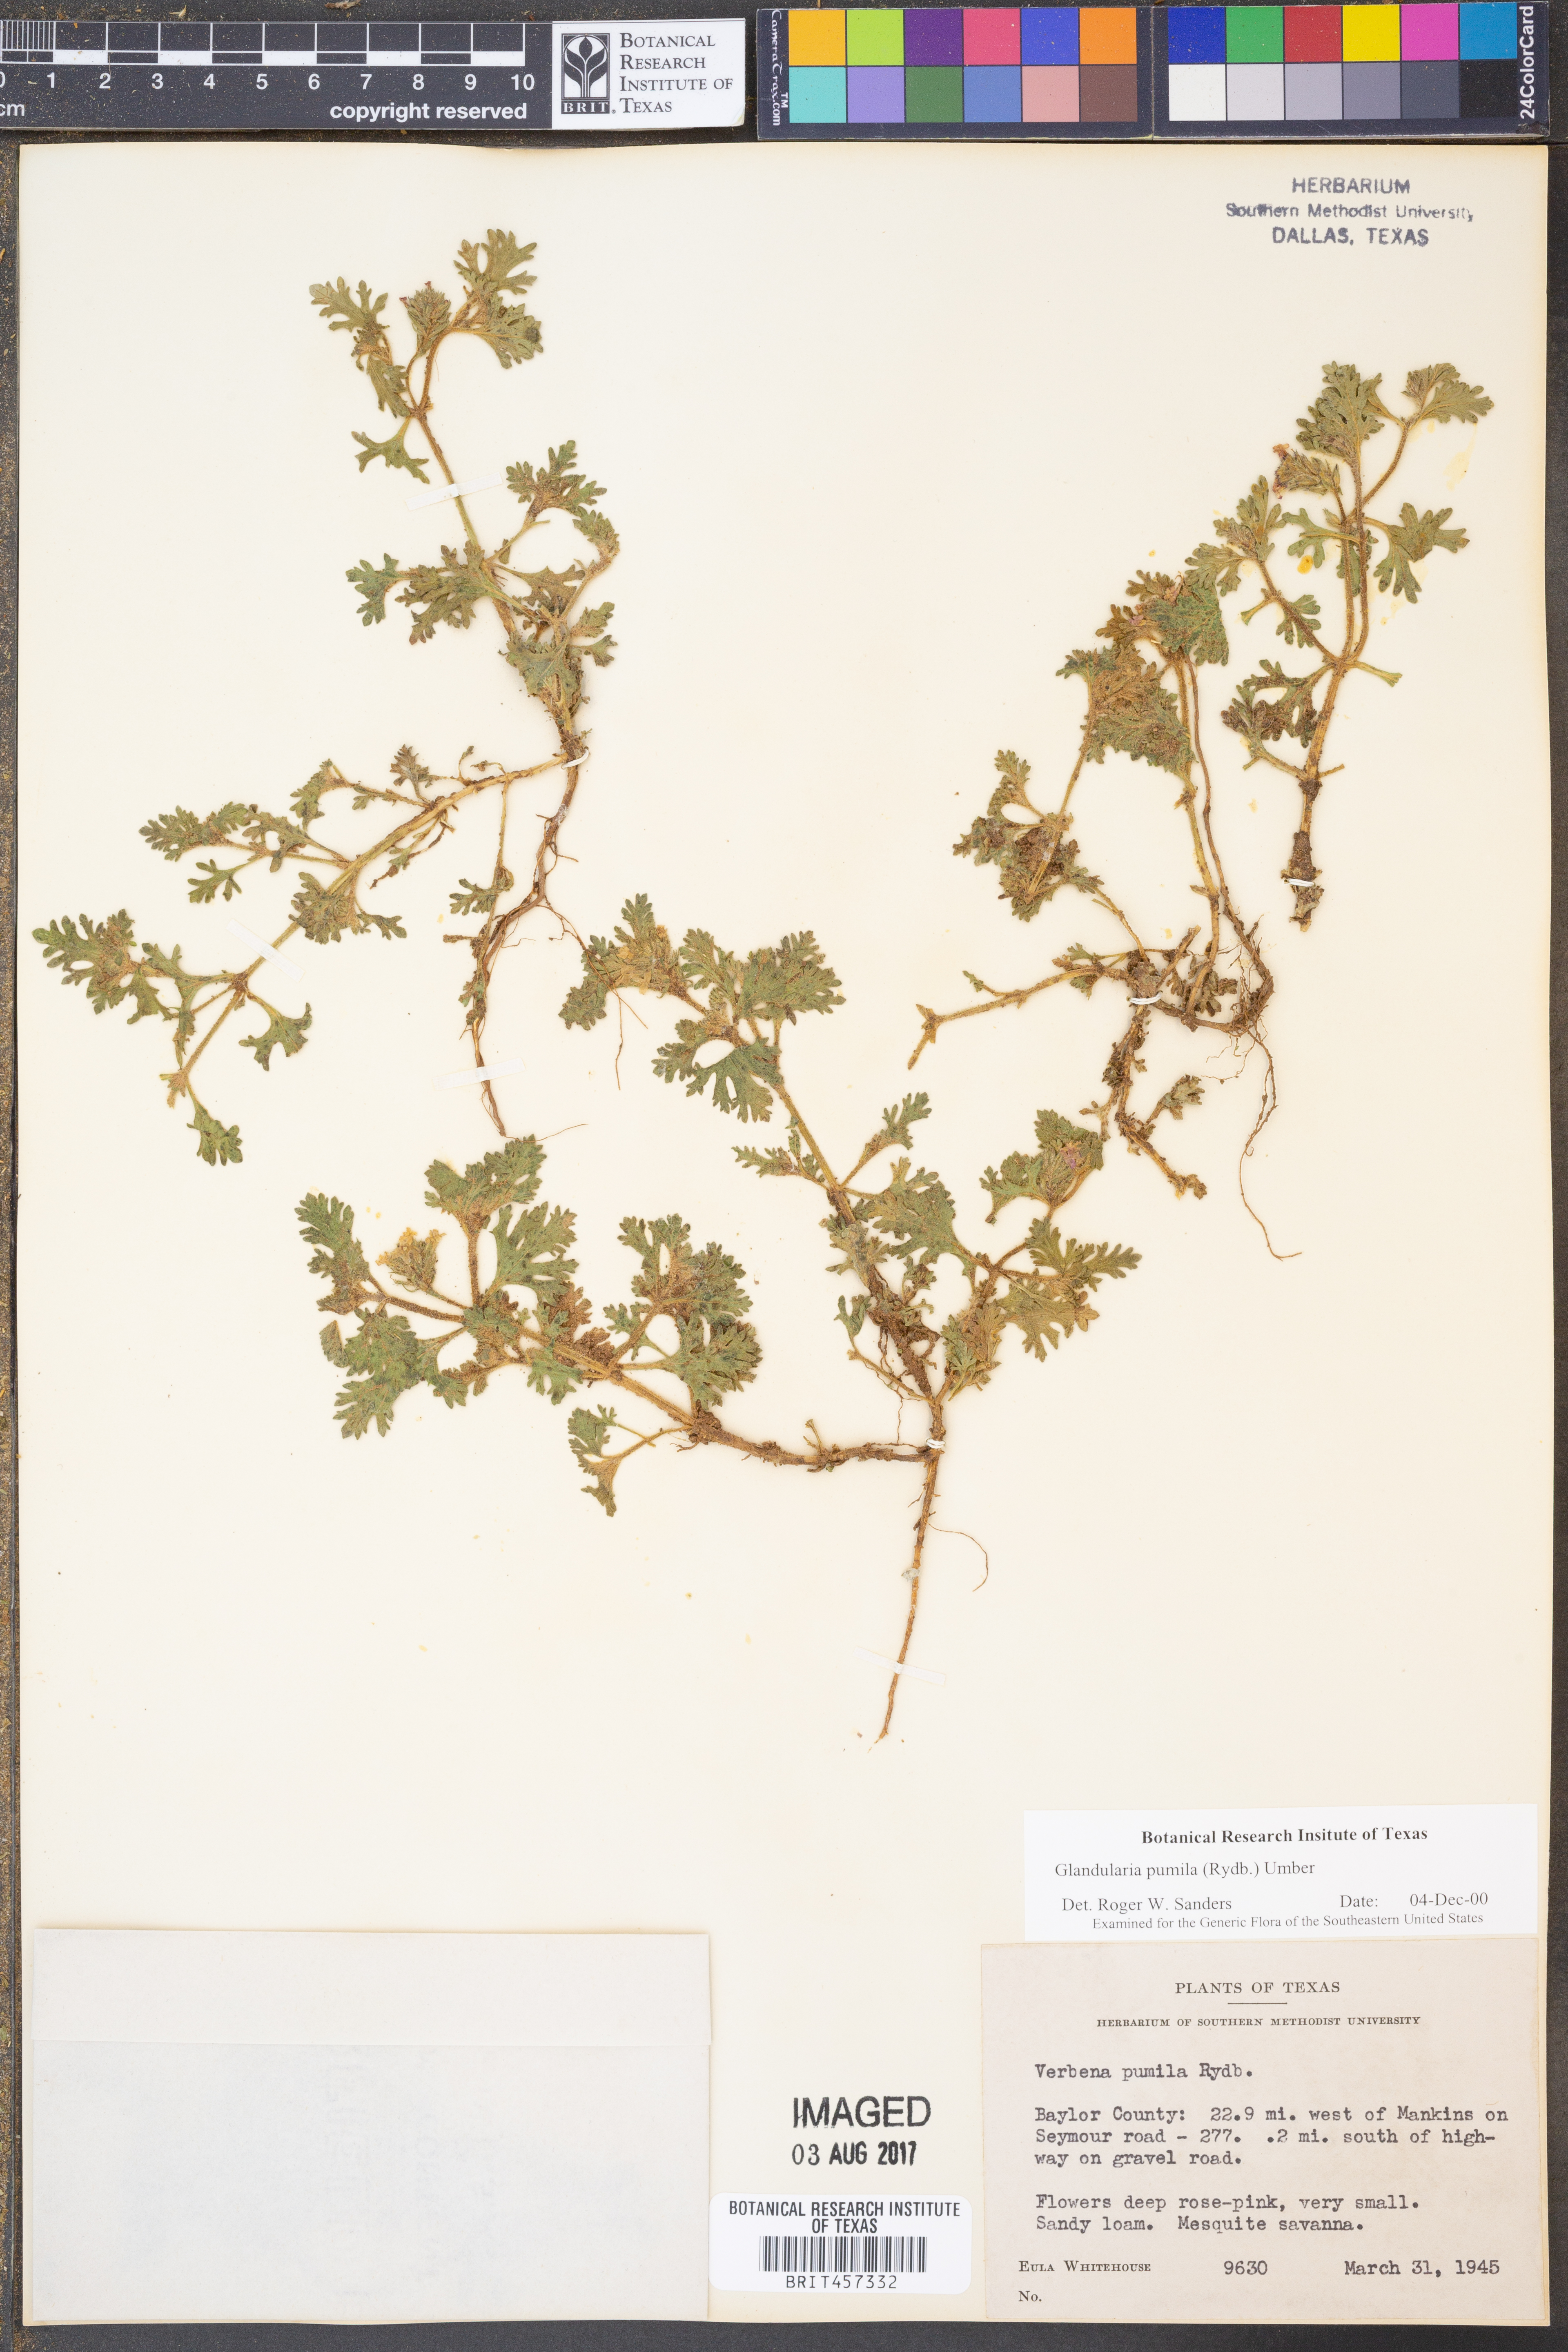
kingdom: Plantae
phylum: Tracheophyta
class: Magnoliopsida
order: Lamiales
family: Verbenaceae
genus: Verbena
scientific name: Verbena pumila
